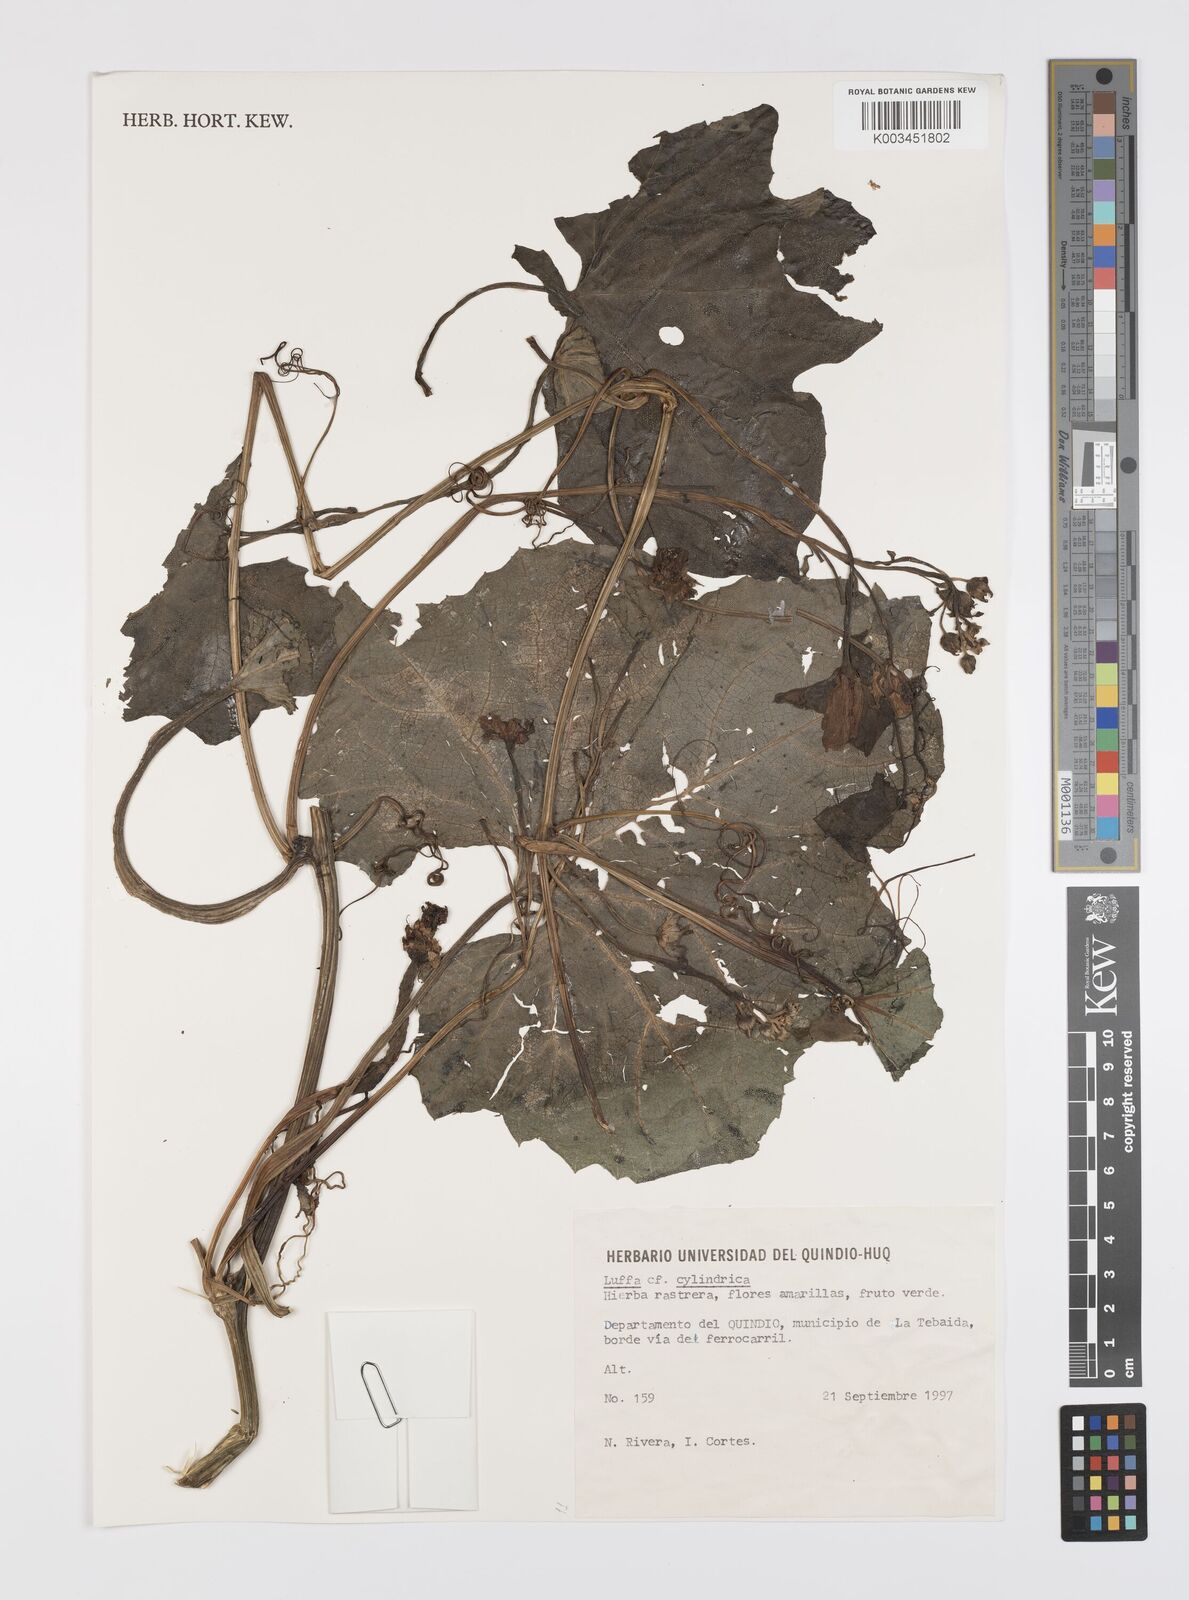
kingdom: Plantae
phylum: Tracheophyta
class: Magnoliopsida
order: Cucurbitales
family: Cucurbitaceae
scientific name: Cucurbitaceae
